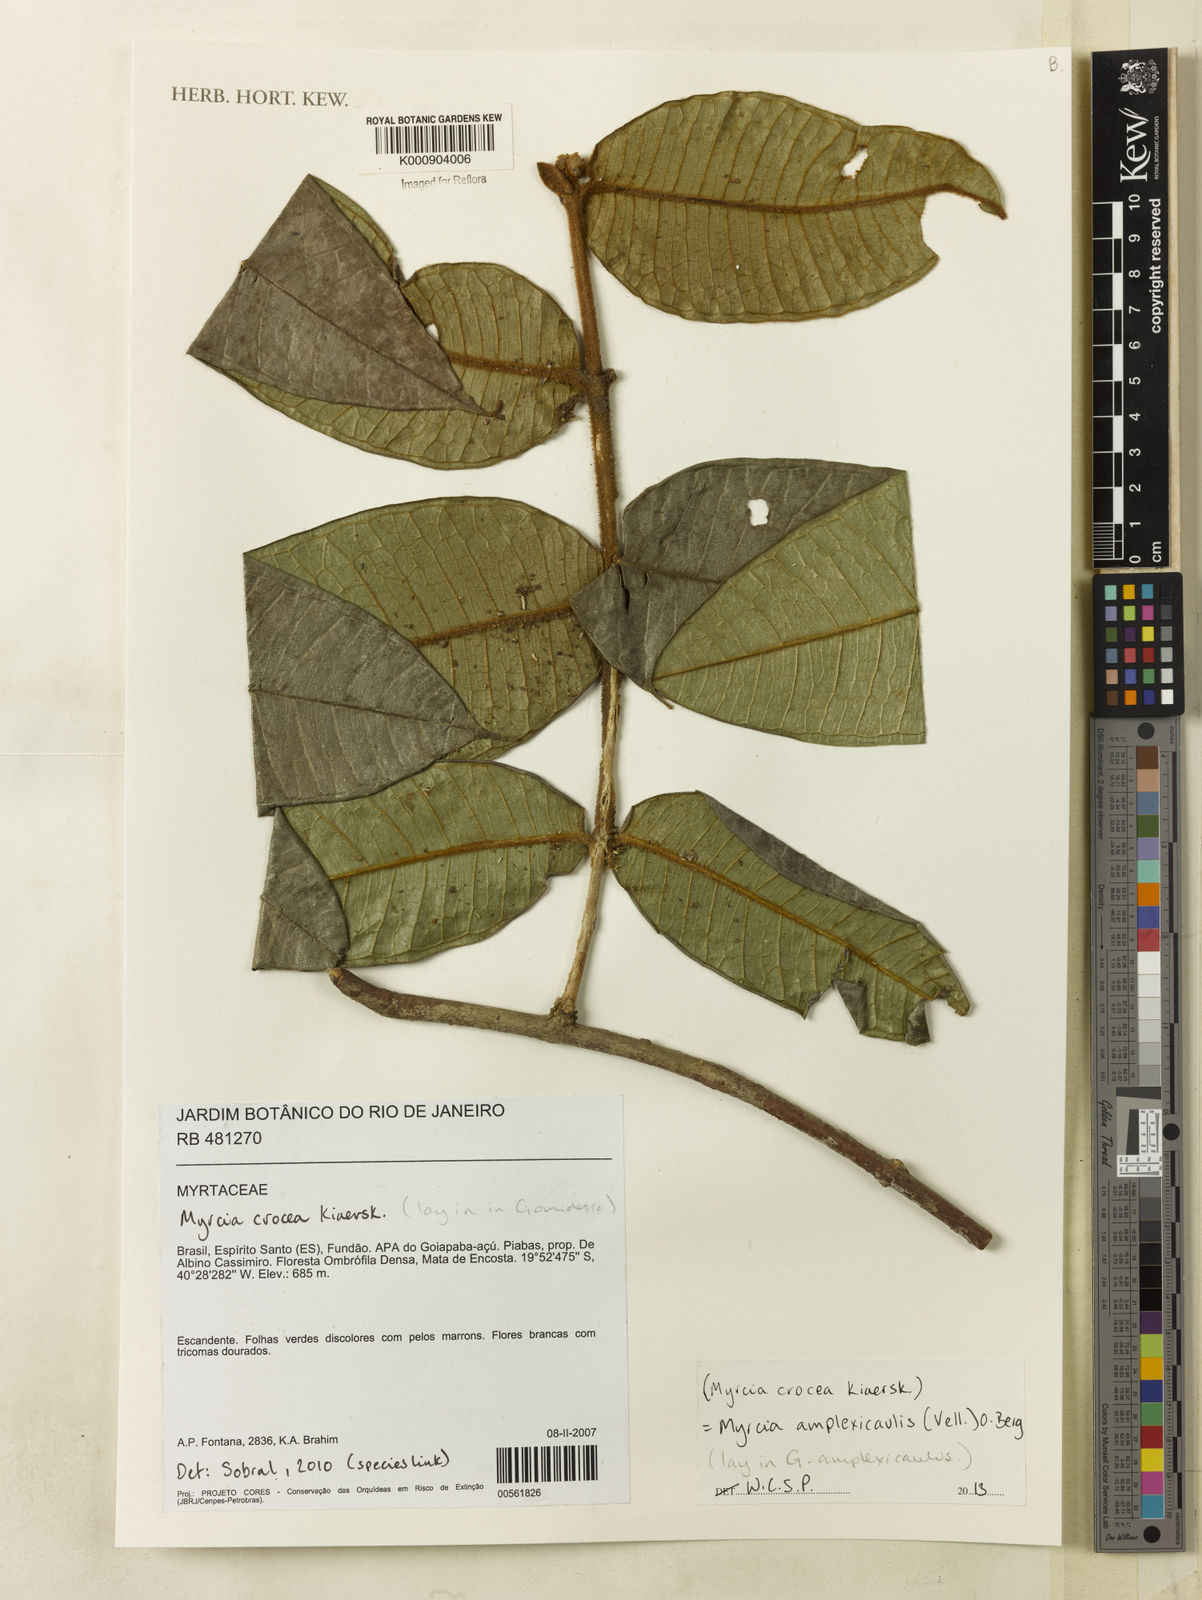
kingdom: Plantae
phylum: Tracheophyta
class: Magnoliopsida
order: Myrtales
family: Myrtaceae
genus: Myrcia
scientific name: Myrcia amplexicaulis
